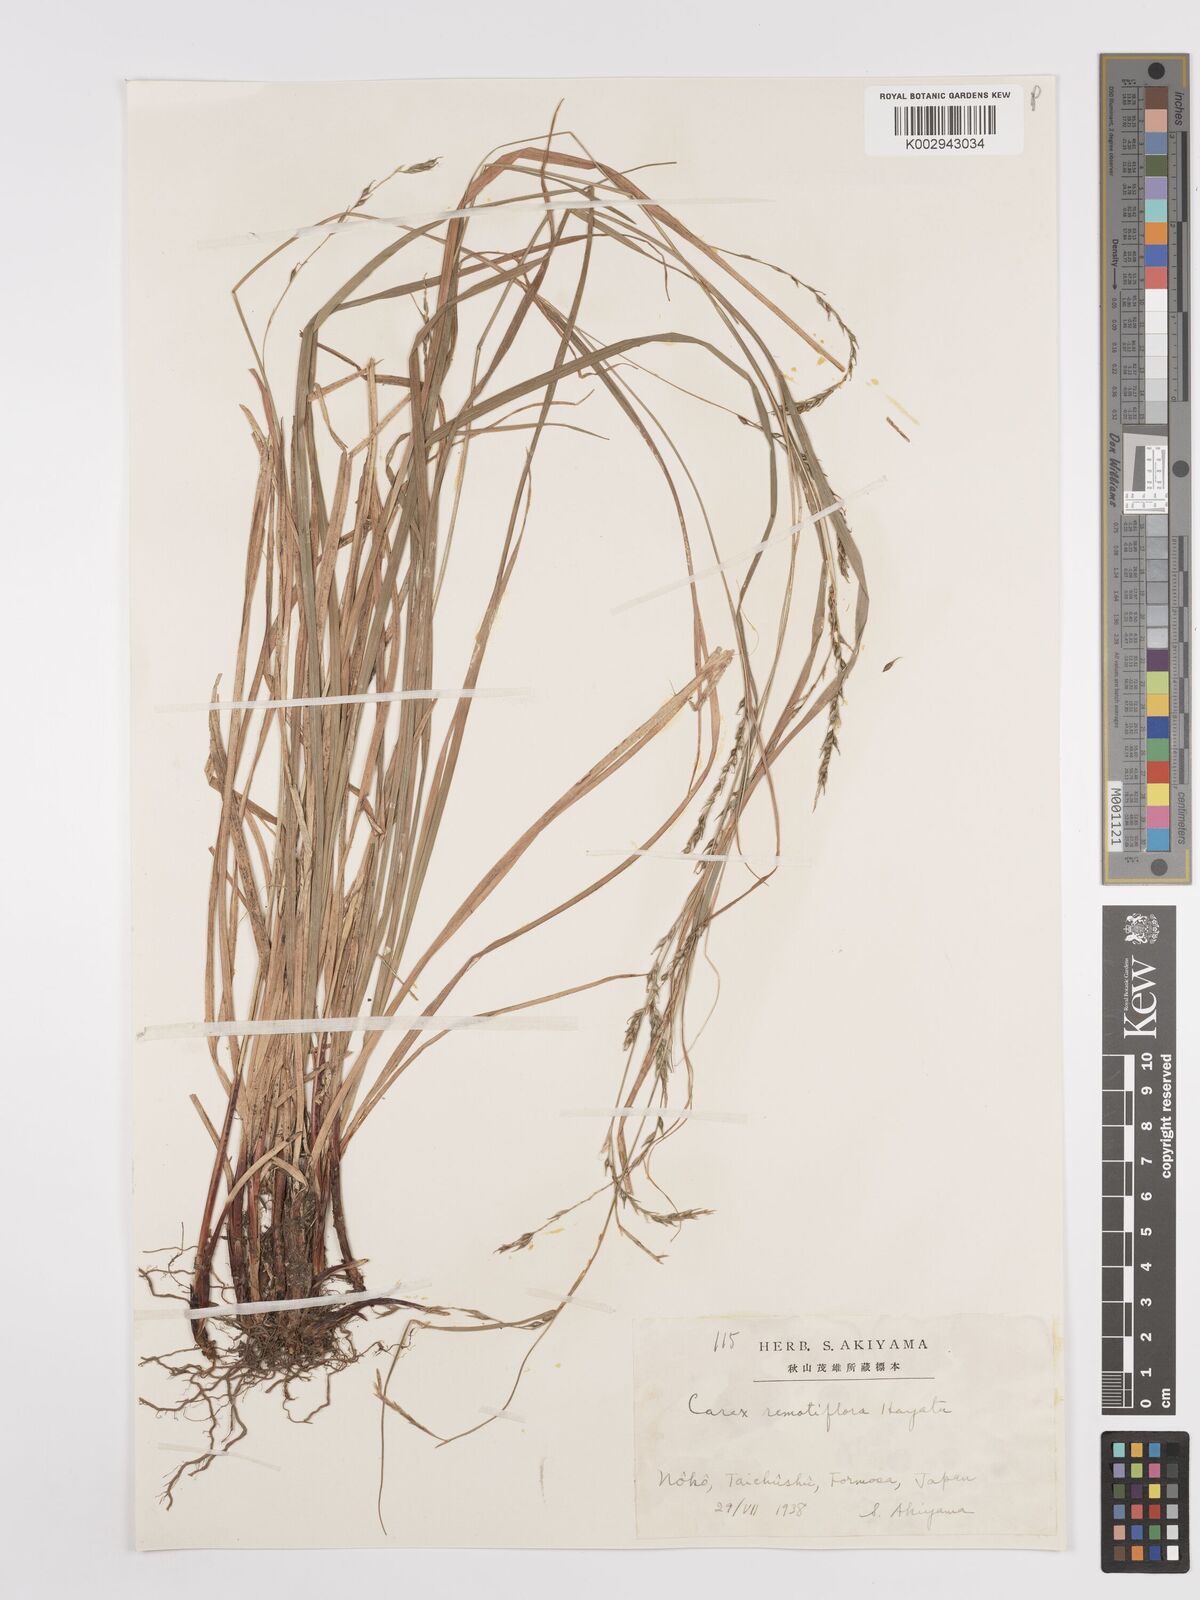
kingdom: Plantae
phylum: Tracheophyta
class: Liliopsida
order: Poales
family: Cyperaceae
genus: Carex
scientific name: Carex finitima
